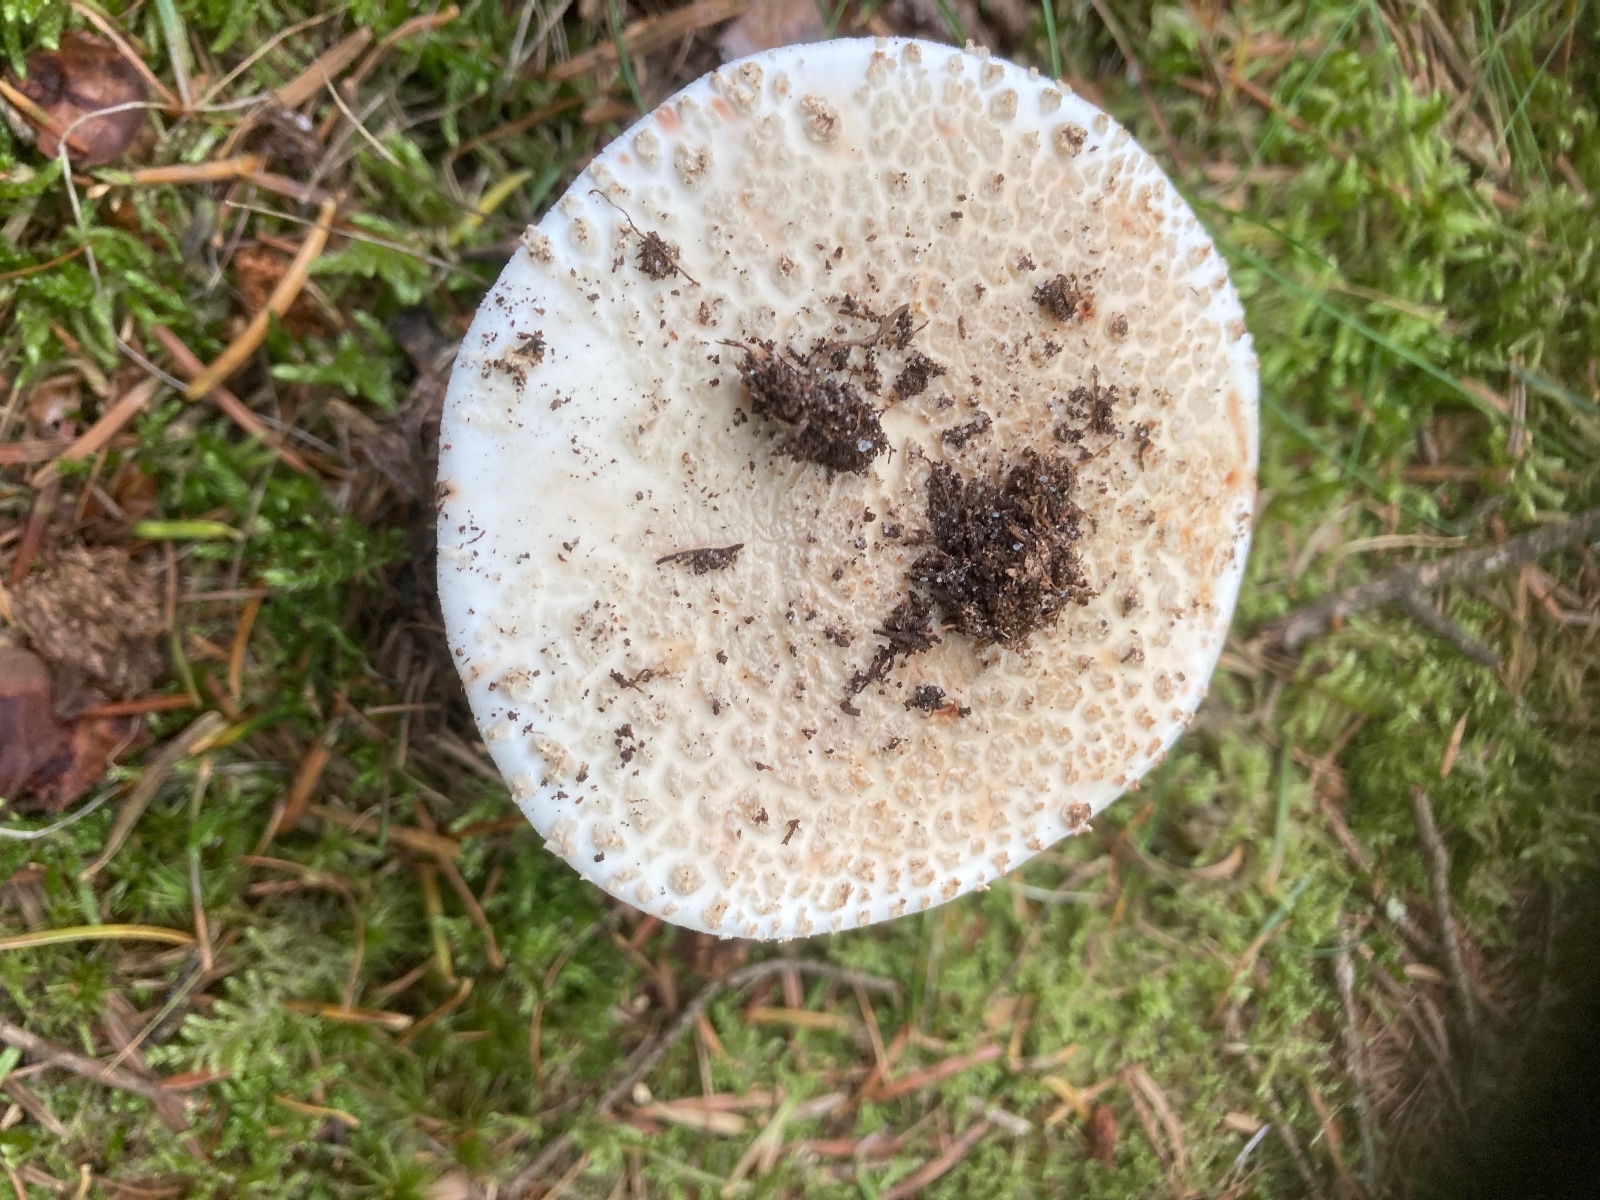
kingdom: Fungi
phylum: Basidiomycota
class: Agaricomycetes
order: Agaricales
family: Amanitaceae
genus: Amanita
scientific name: Amanita
